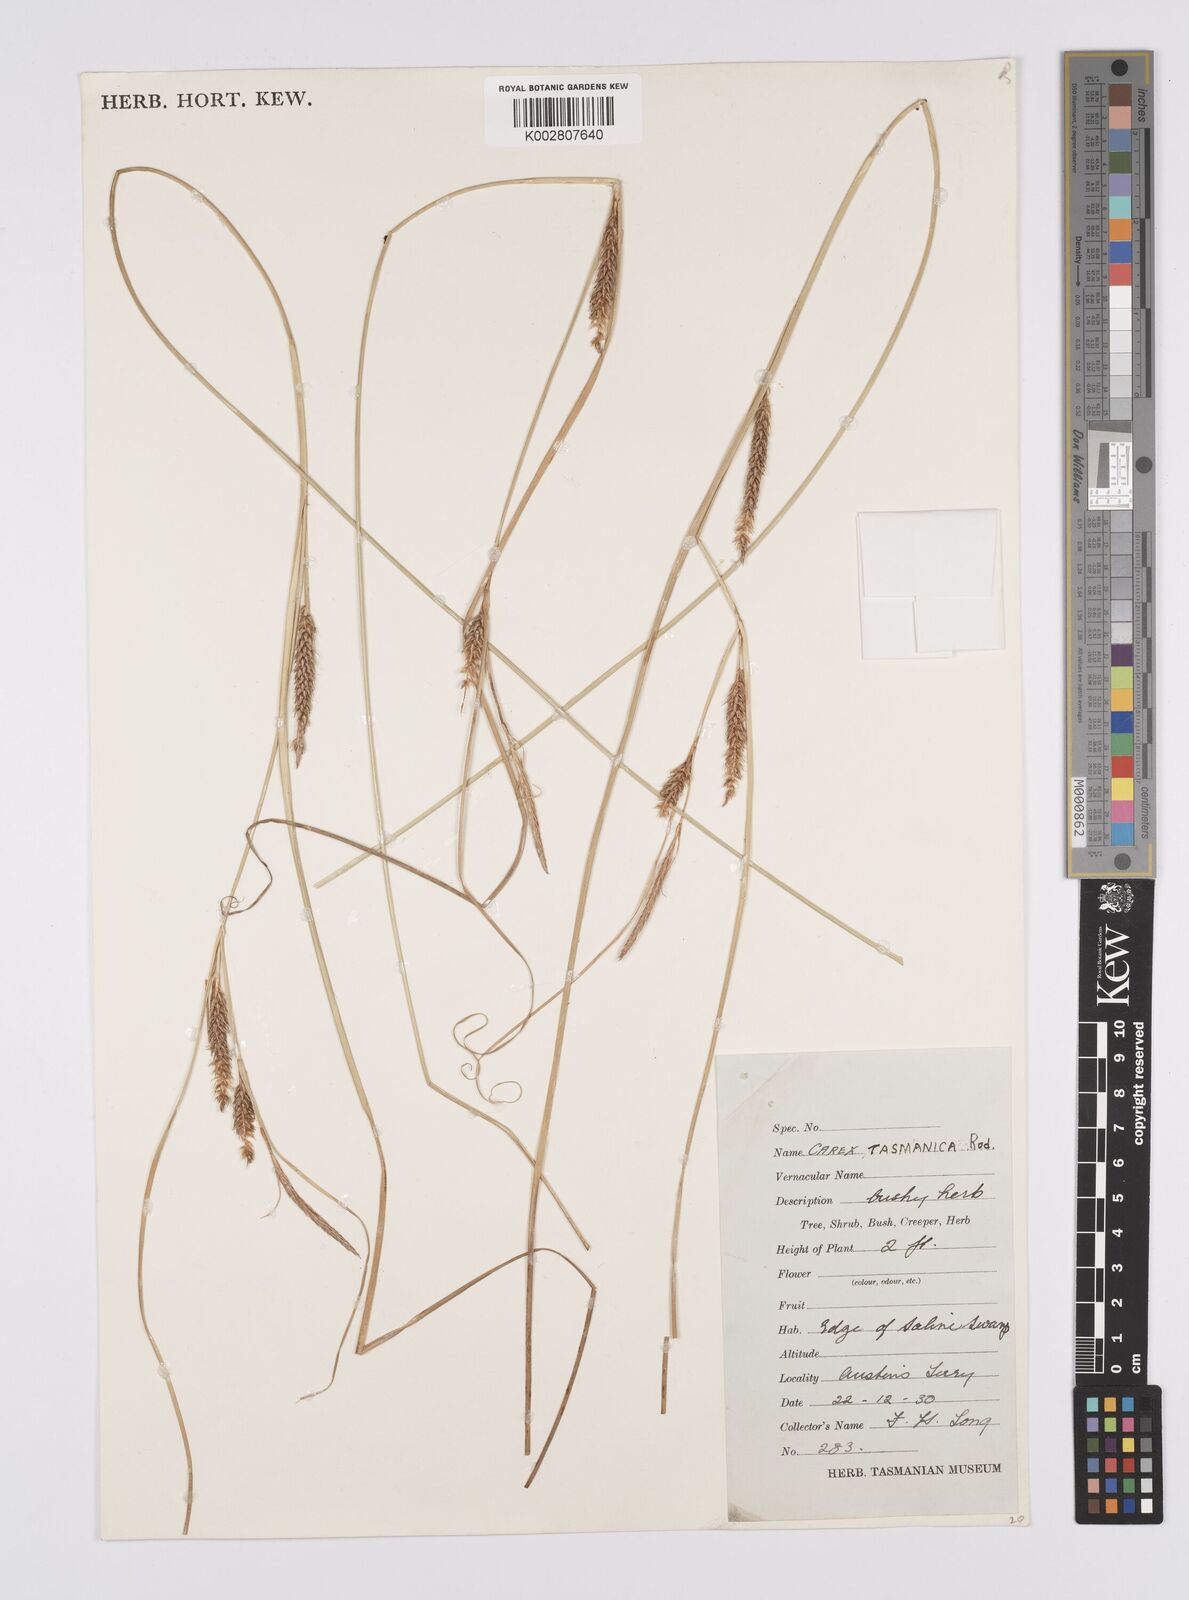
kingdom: Plantae
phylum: Tracheophyta
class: Liliopsida
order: Poales
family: Cyperaceae
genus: Carex
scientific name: Carex tasmanica
